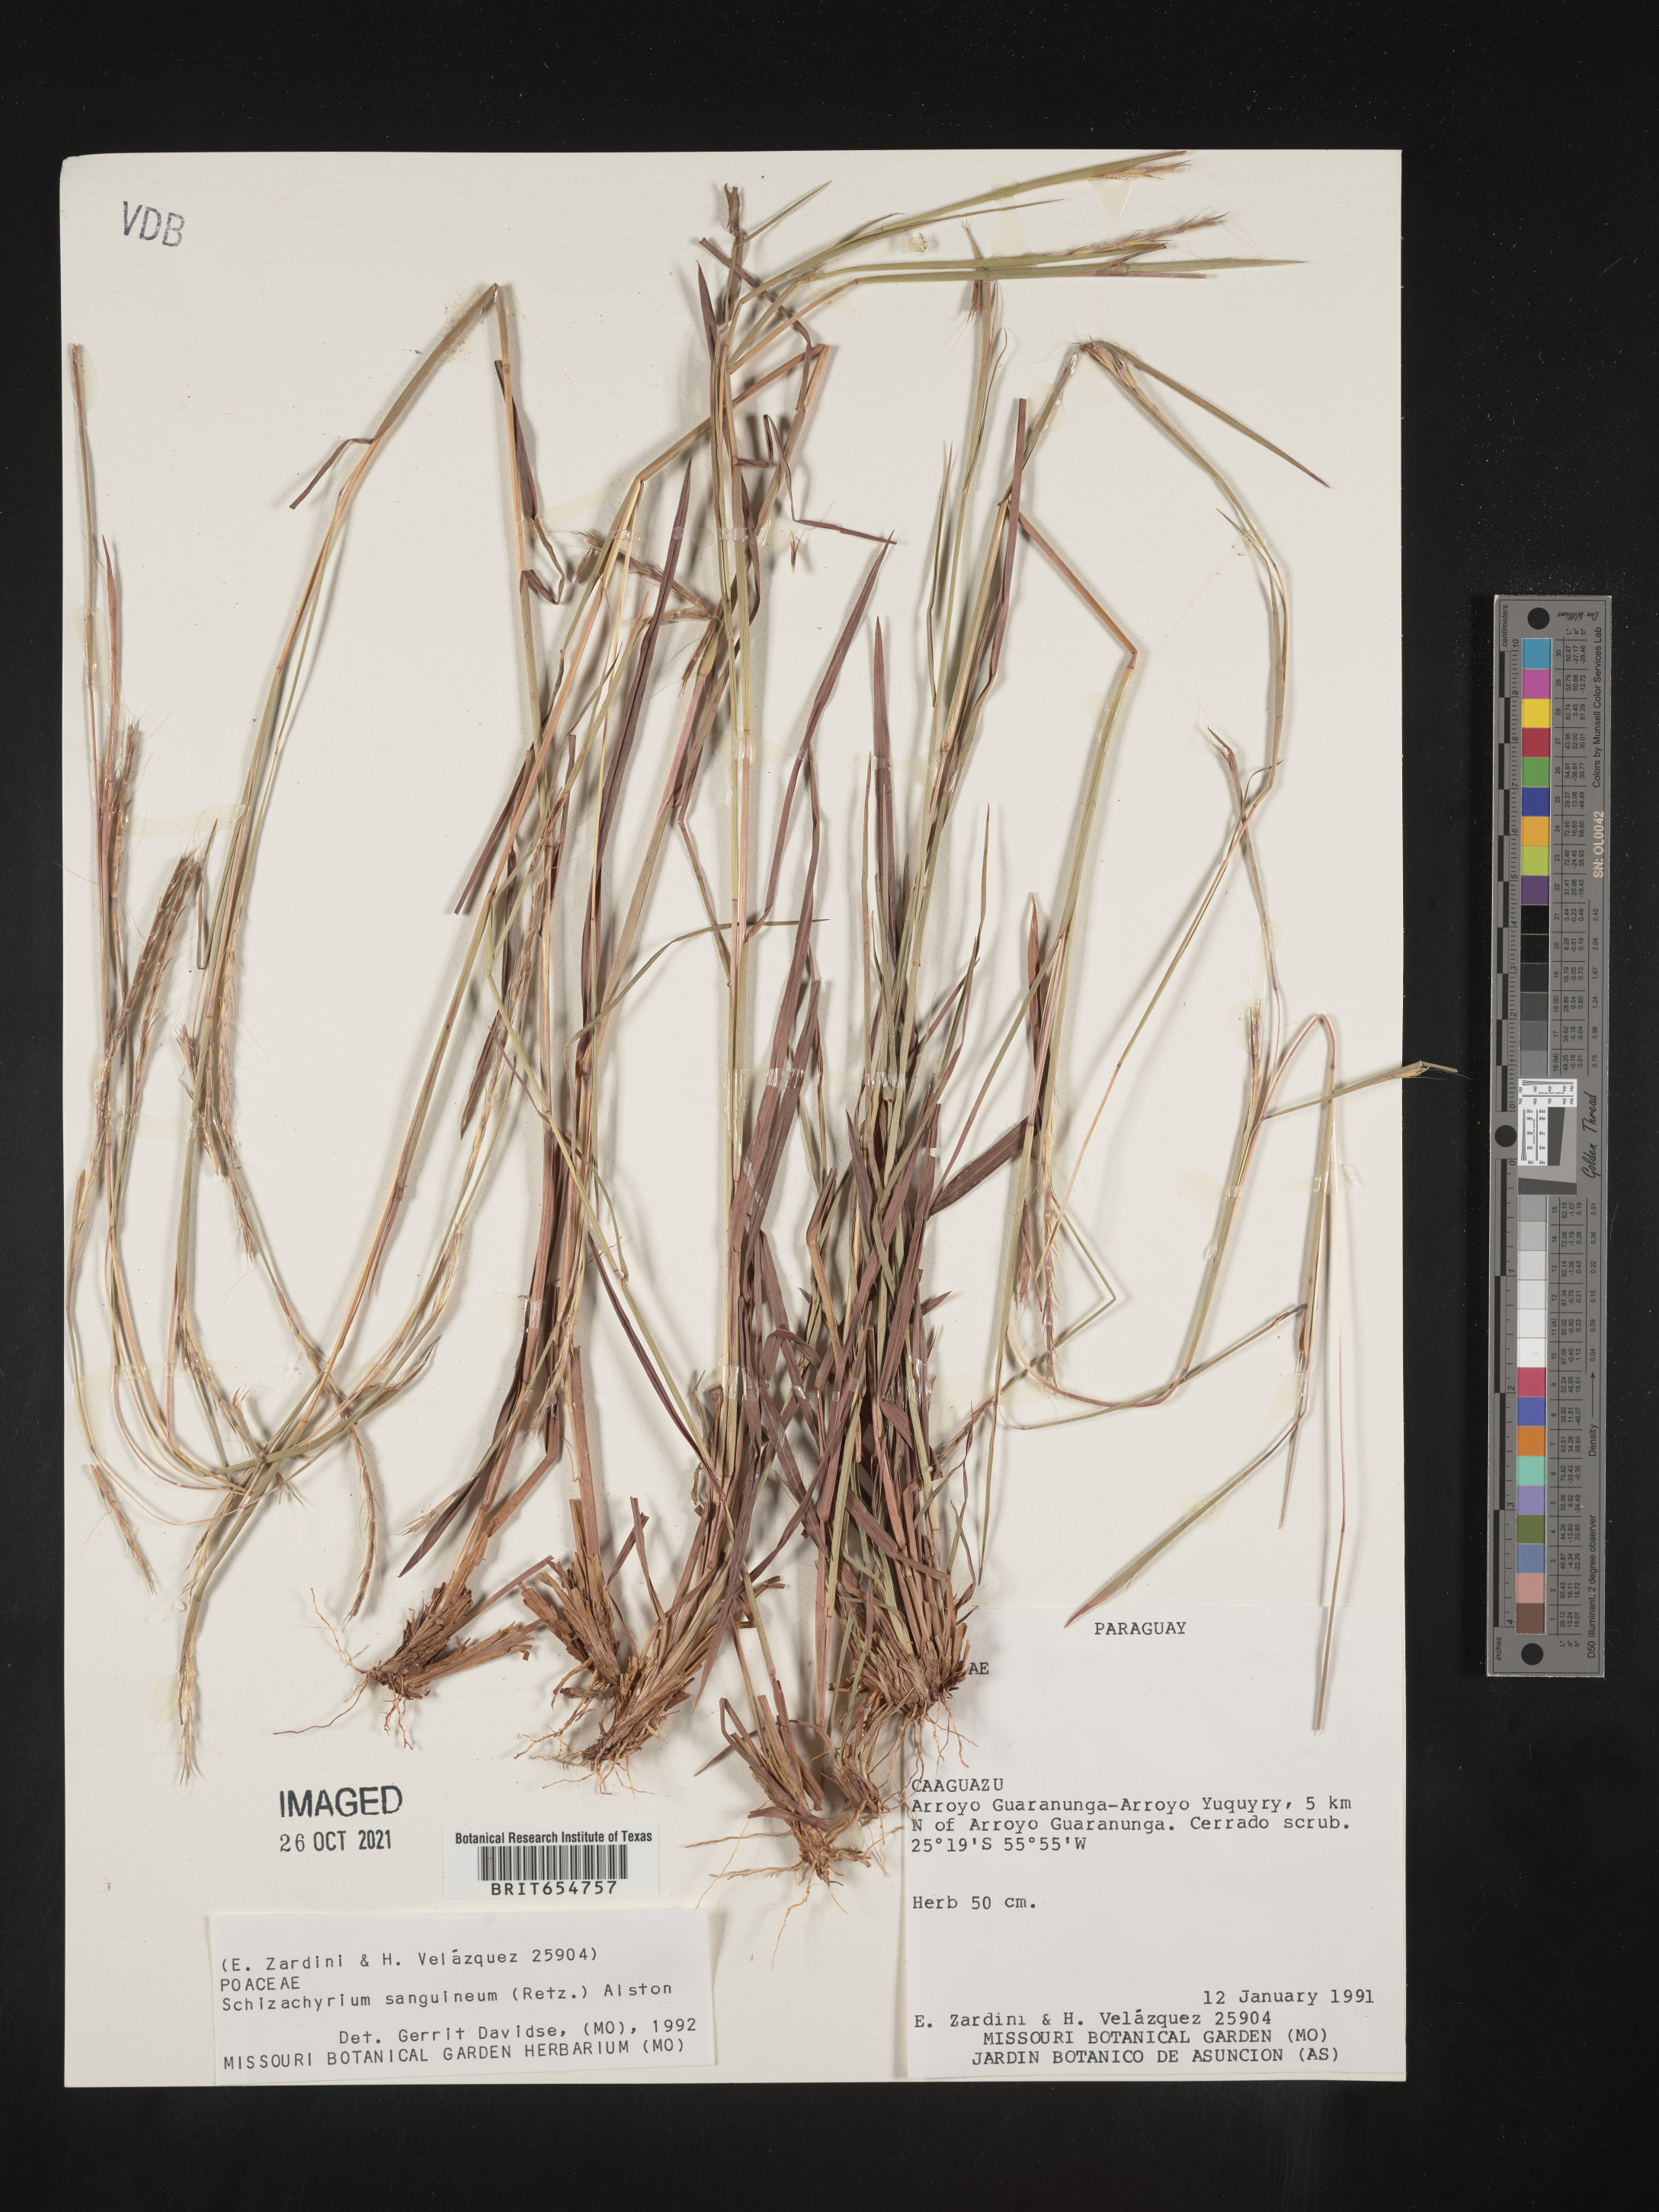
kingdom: Plantae
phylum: Tracheophyta
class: Liliopsida
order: Poales
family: Poaceae
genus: Andropogon
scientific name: Andropogon
